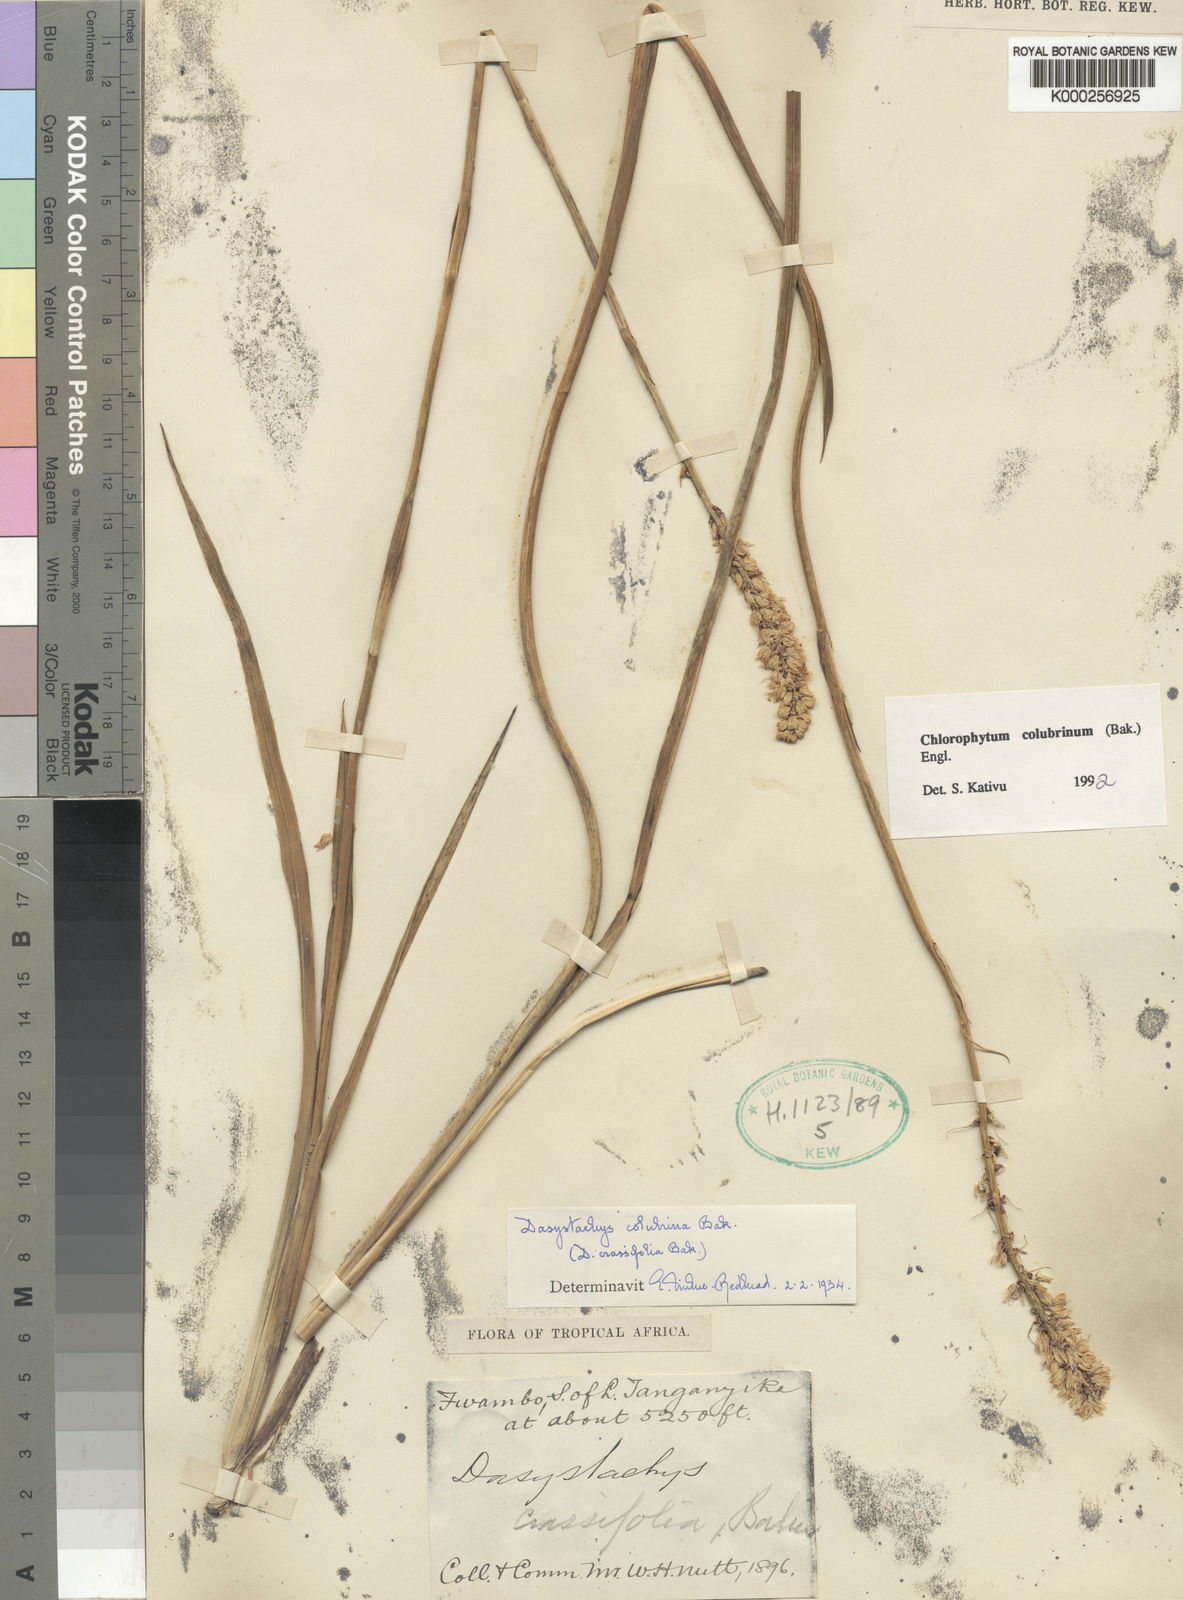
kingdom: Plantae
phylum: Tracheophyta
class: Liliopsida
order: Asparagales
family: Asparagaceae
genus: Chlorophytum
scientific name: Chlorophytum colubrinum
